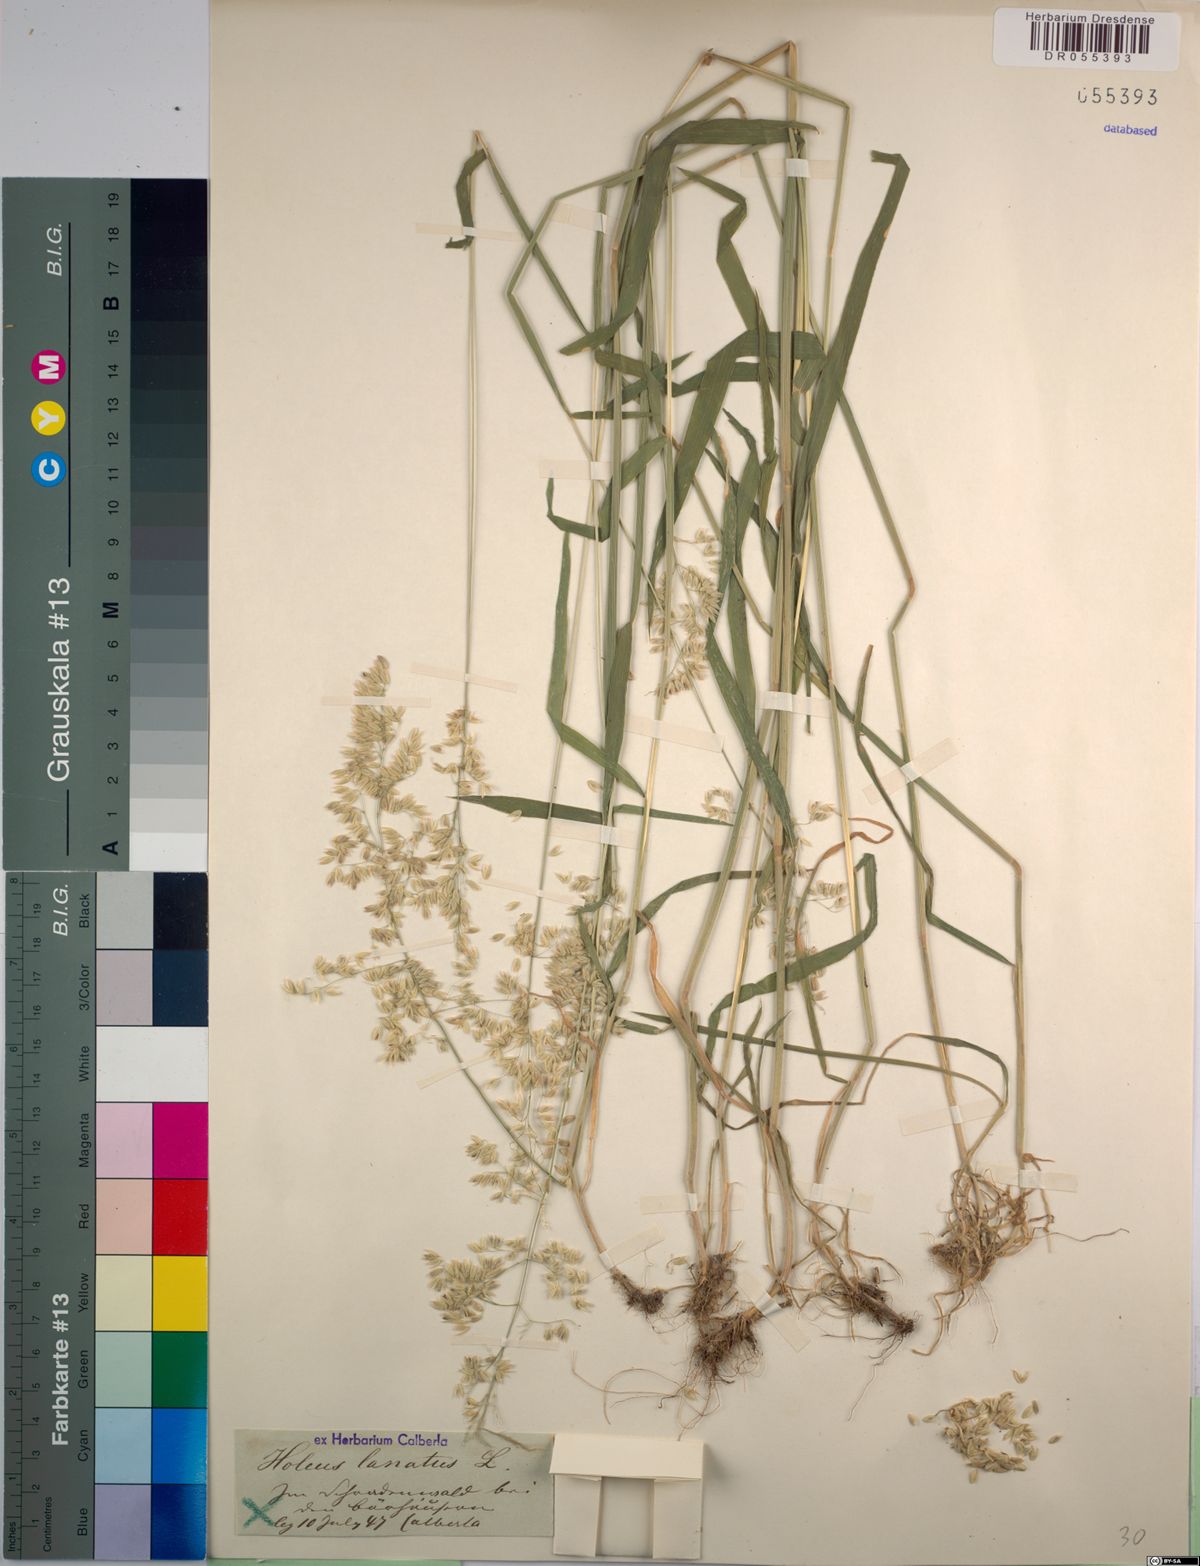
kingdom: Plantae
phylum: Tracheophyta
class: Liliopsida
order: Poales
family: Poaceae
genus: Holcus
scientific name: Holcus lanatus
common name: Yorkshire-fog
